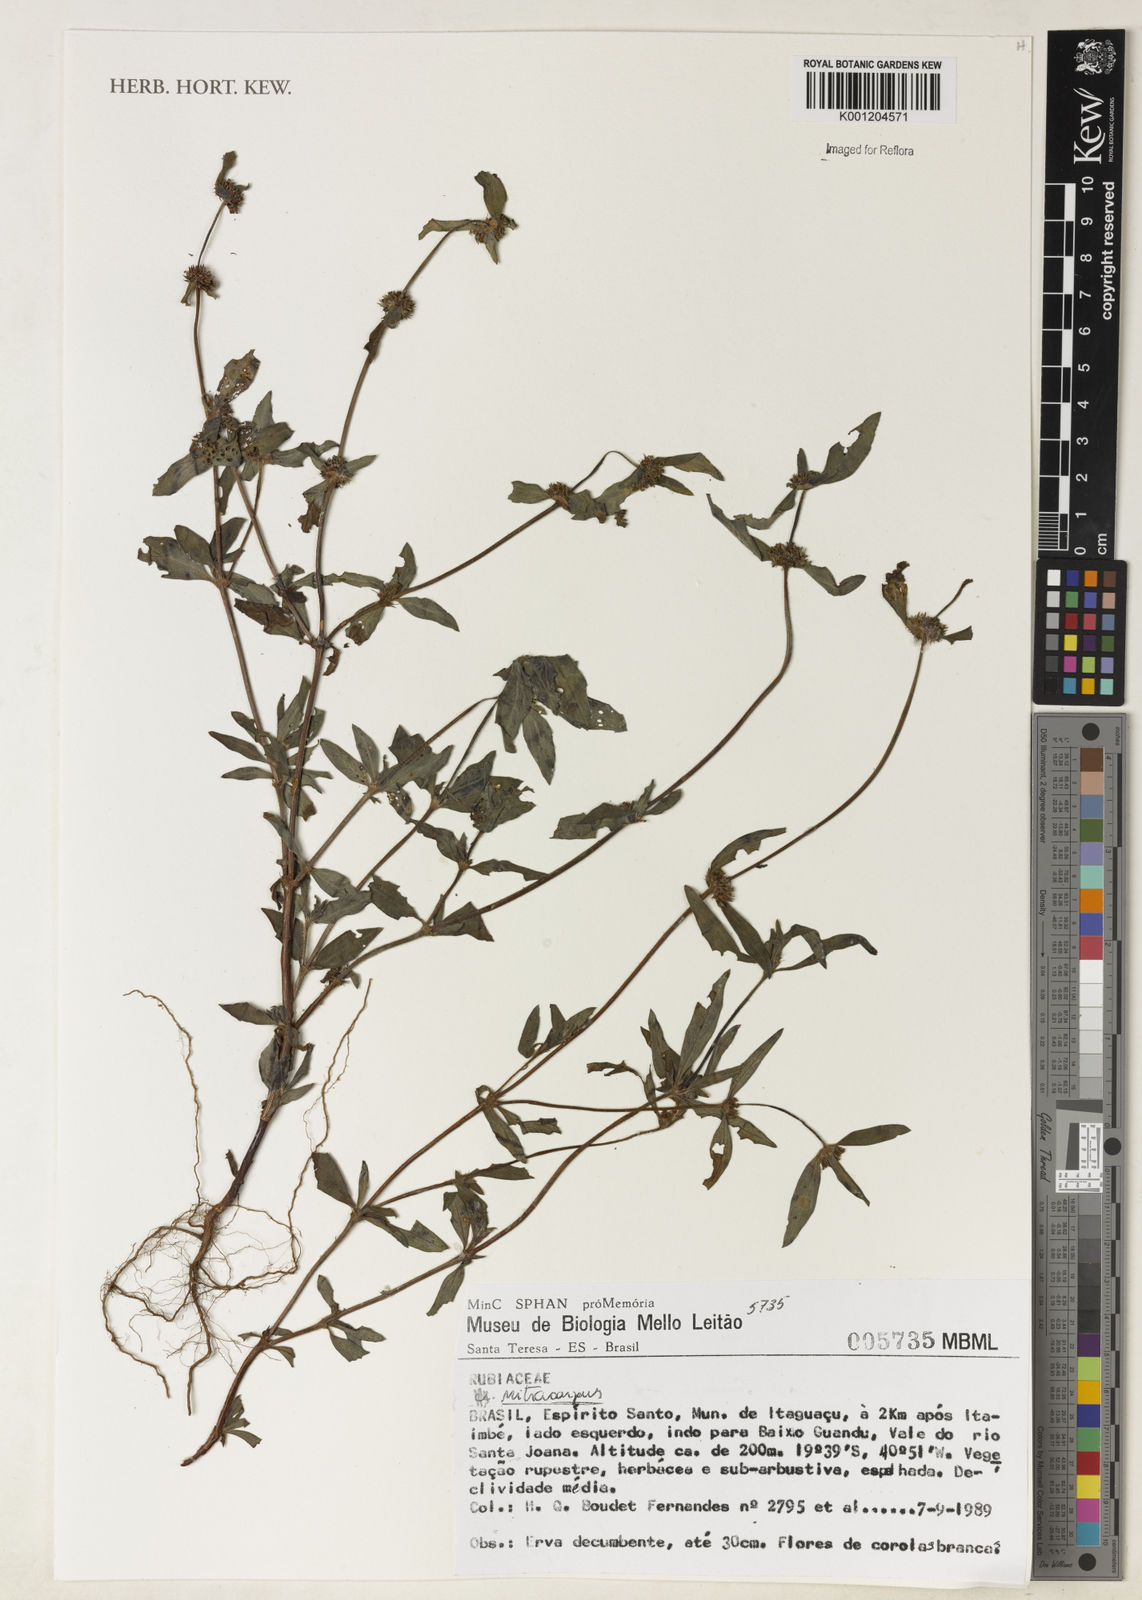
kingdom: Plantae
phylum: Tracheophyta
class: Magnoliopsida
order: Gentianales
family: Rubiaceae
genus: Mitracarpus
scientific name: Mitracarpus
